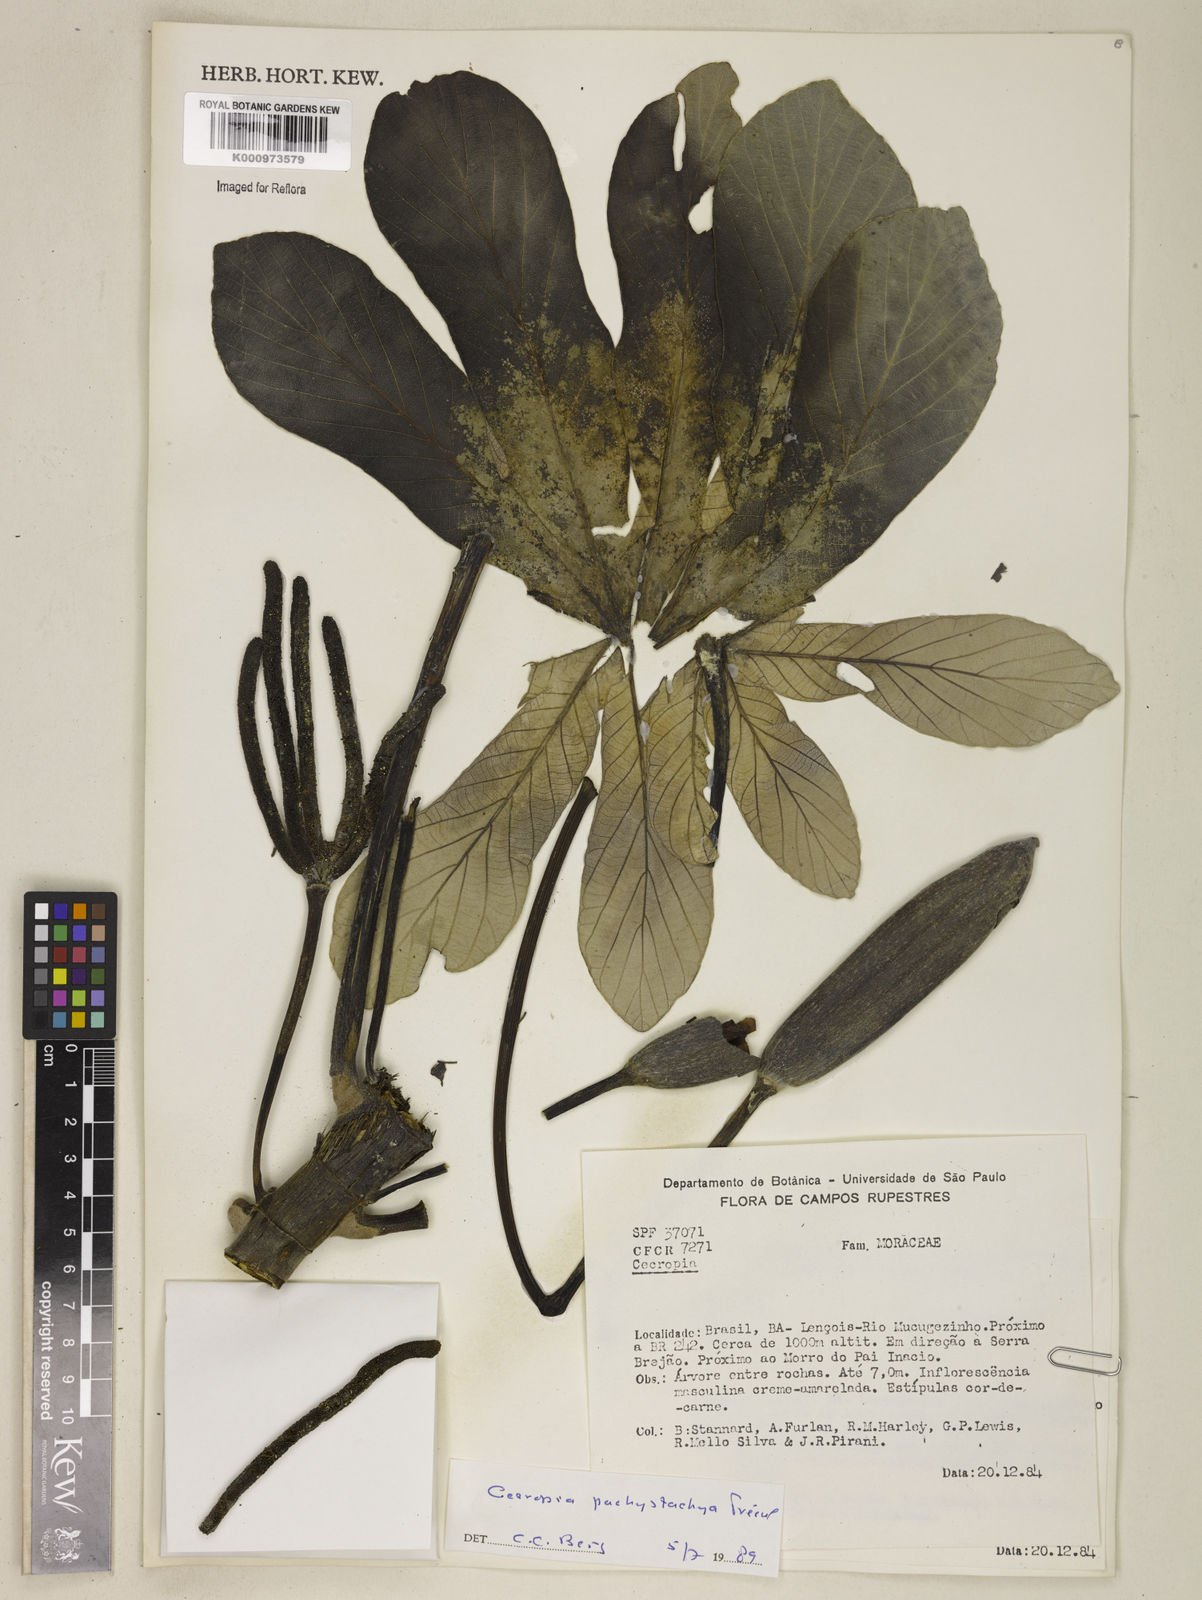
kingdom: Plantae
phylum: Tracheophyta
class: Magnoliopsida
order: Rosales
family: Urticaceae
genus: Cecropia
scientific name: Cecropia
